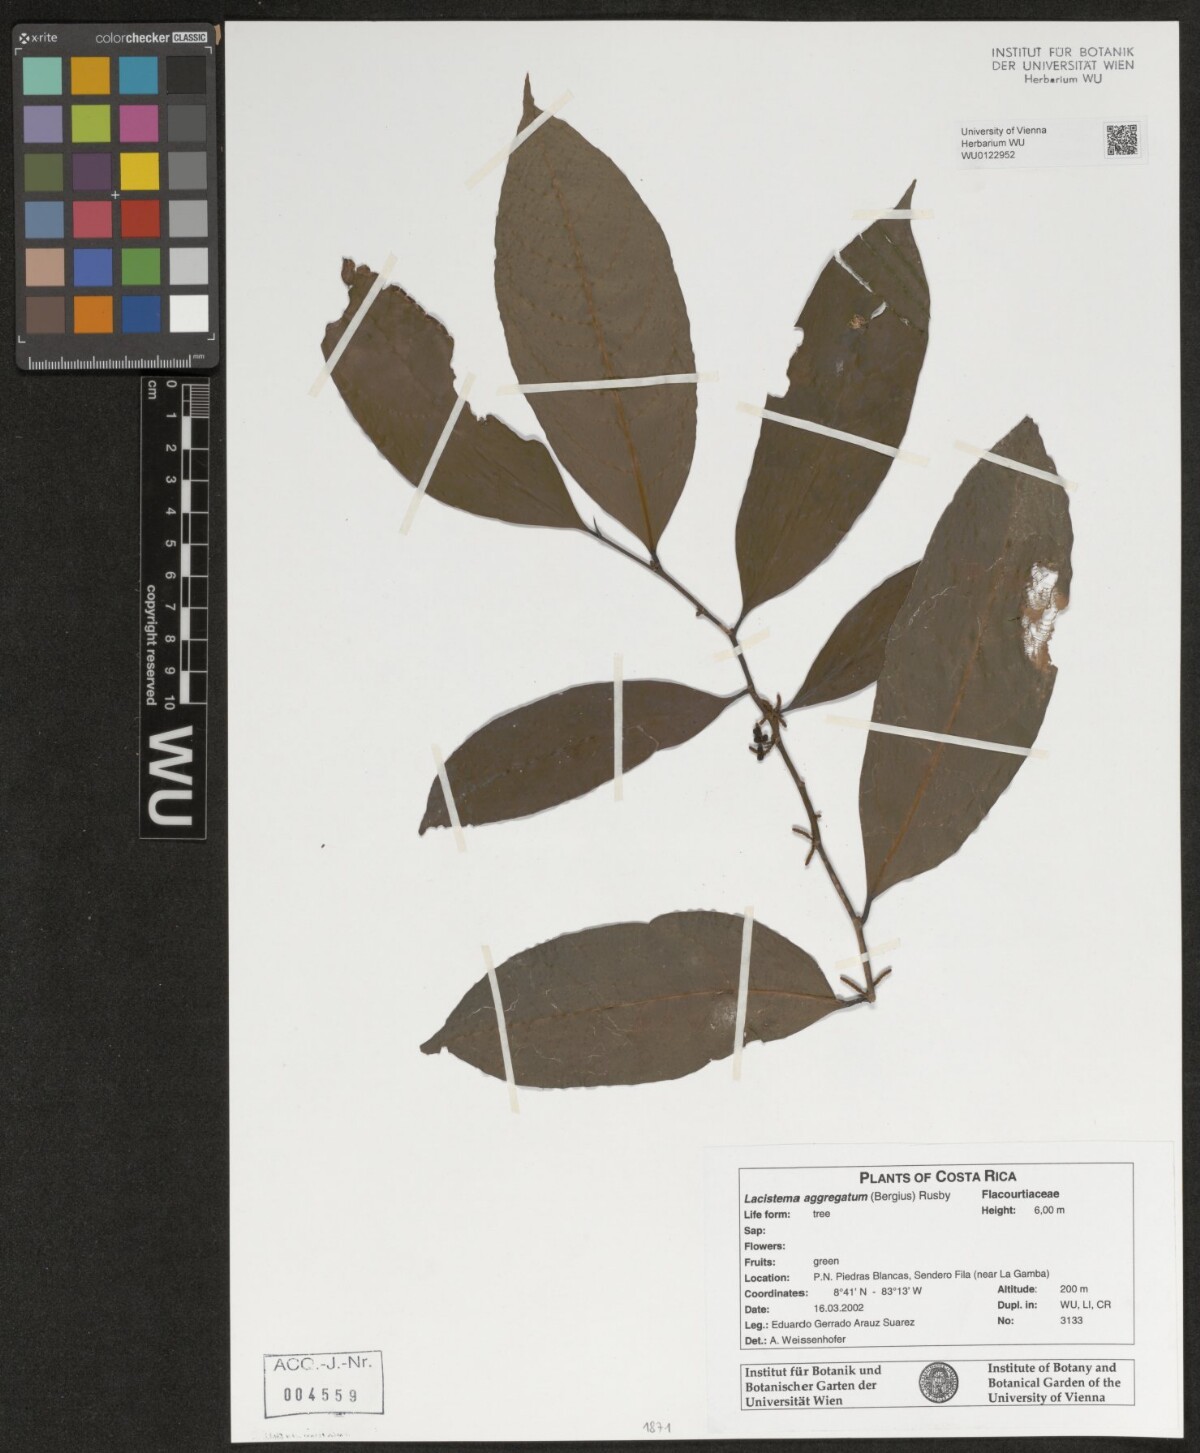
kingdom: Plantae
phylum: Tracheophyta
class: Magnoliopsida
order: Malpighiales
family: Lacistemataceae
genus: Lacistema
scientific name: Lacistema aggregatum
